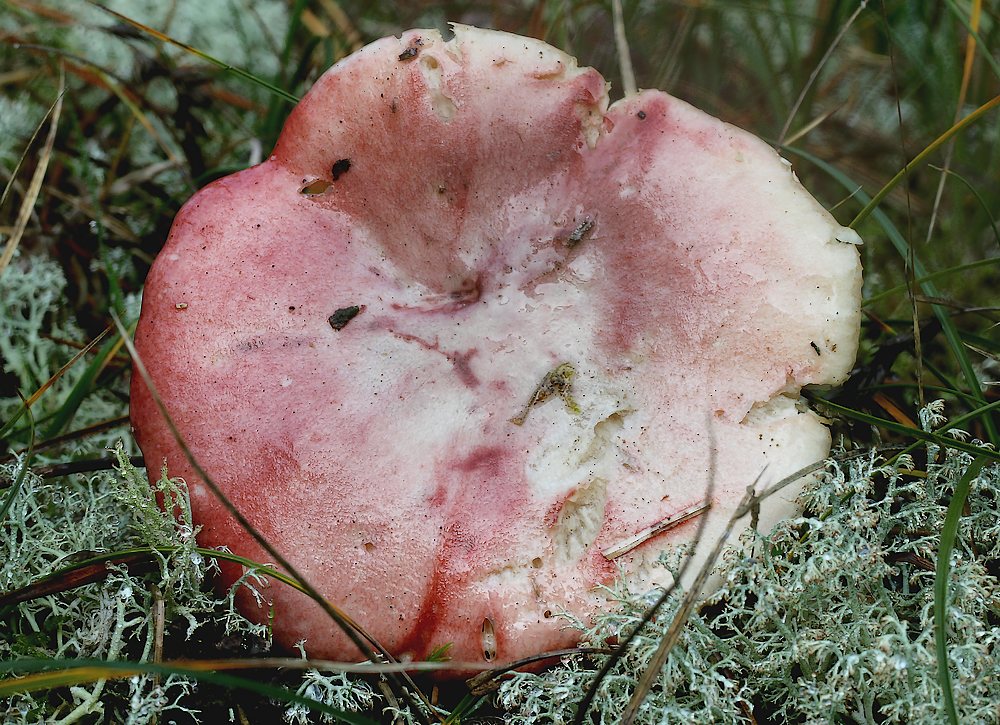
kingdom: Fungi
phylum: Basidiomycota
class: Agaricomycetes
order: Russulales
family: Russulaceae
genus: Russula
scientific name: Russula sanguinea
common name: blodrød skørhat
